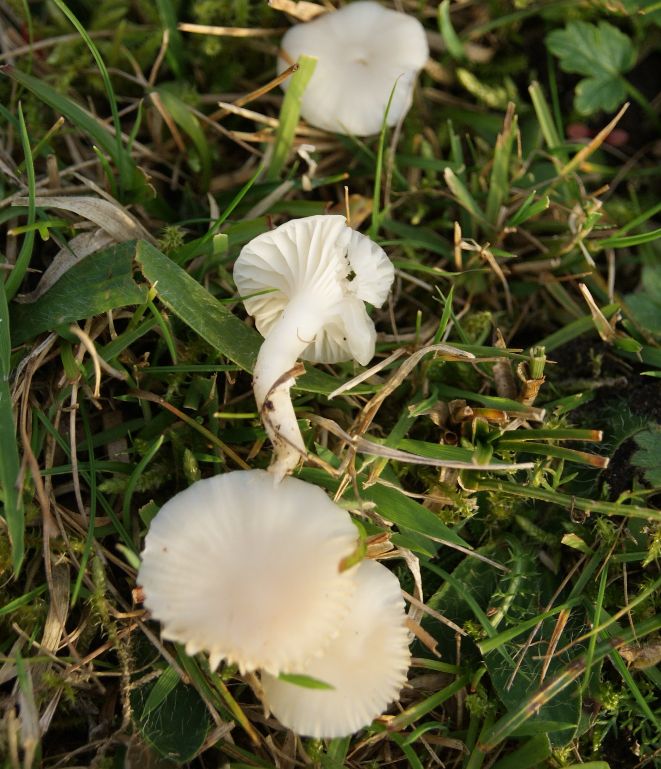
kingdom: Fungi
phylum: Basidiomycota
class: Agaricomycetes
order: Agaricales
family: Hygrophoraceae
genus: Cuphophyllus
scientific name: Cuphophyllus virgineus
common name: snehvid vokshat
